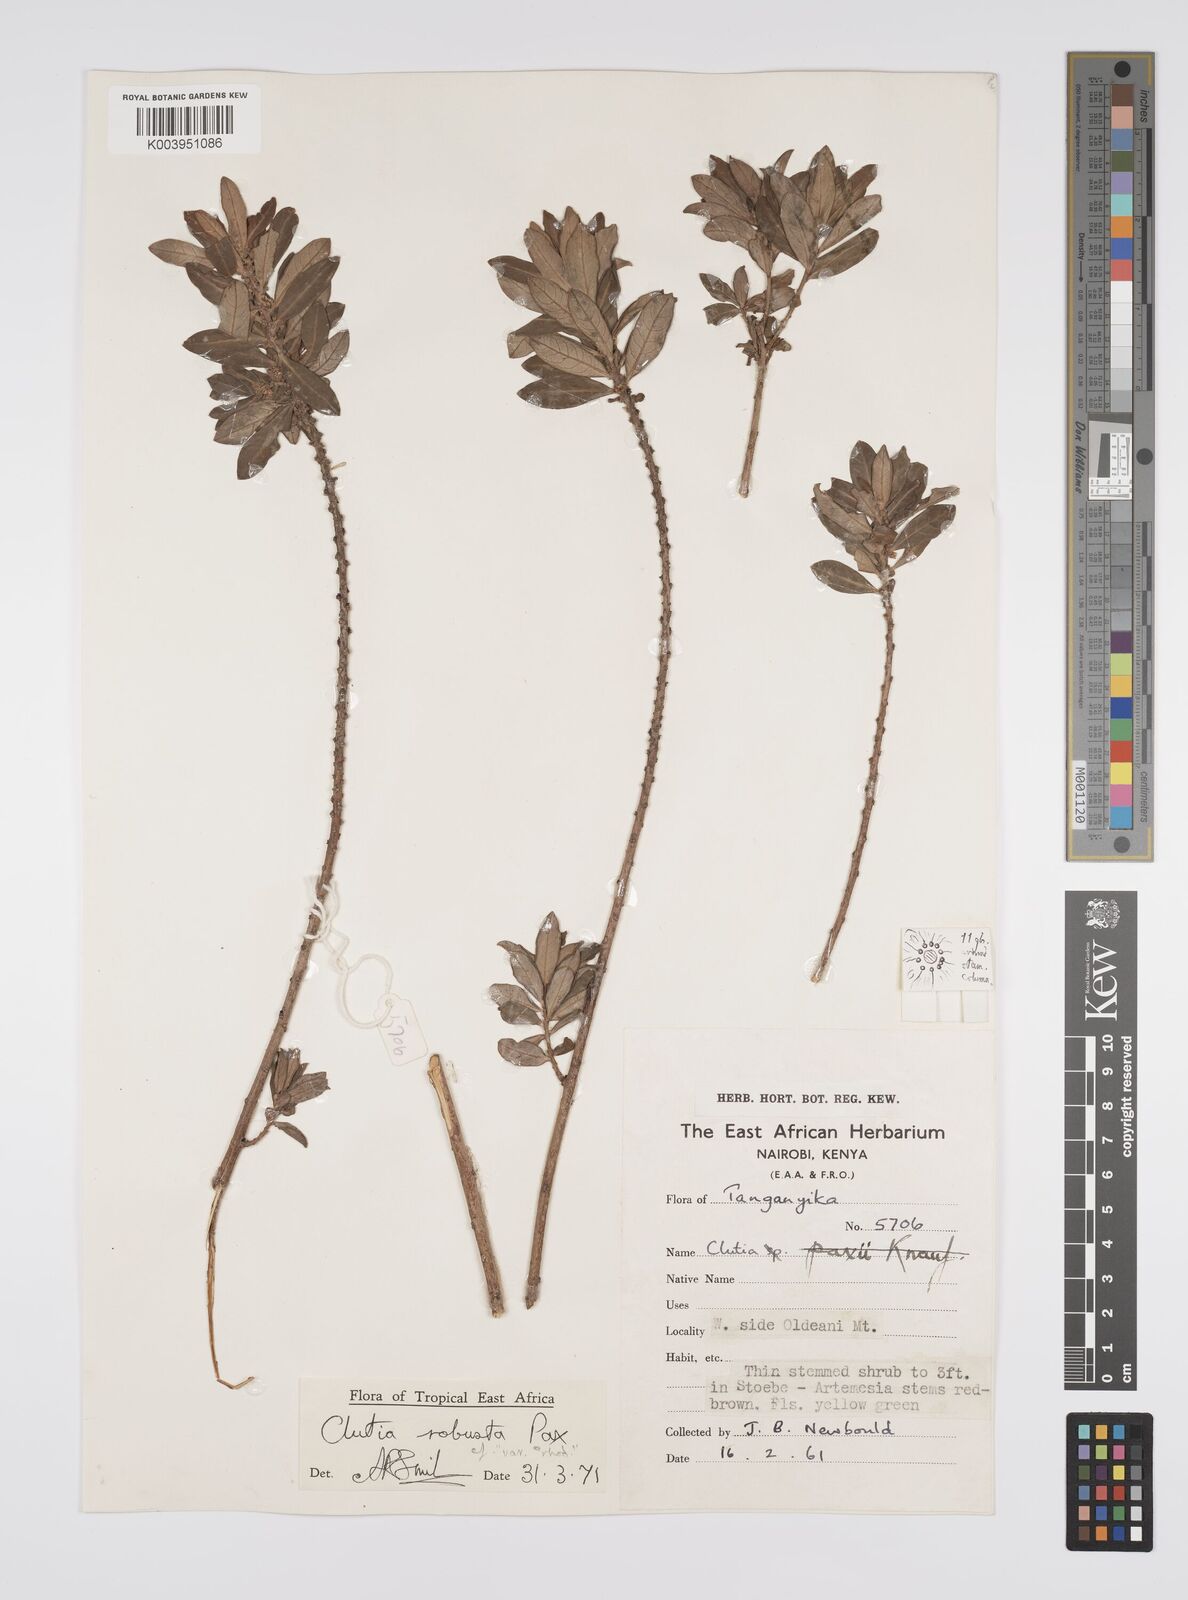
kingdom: Plantae
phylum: Tracheophyta
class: Magnoliopsida
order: Malpighiales
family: Peraceae
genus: Clutia
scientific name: Clutia kilimandscharica
